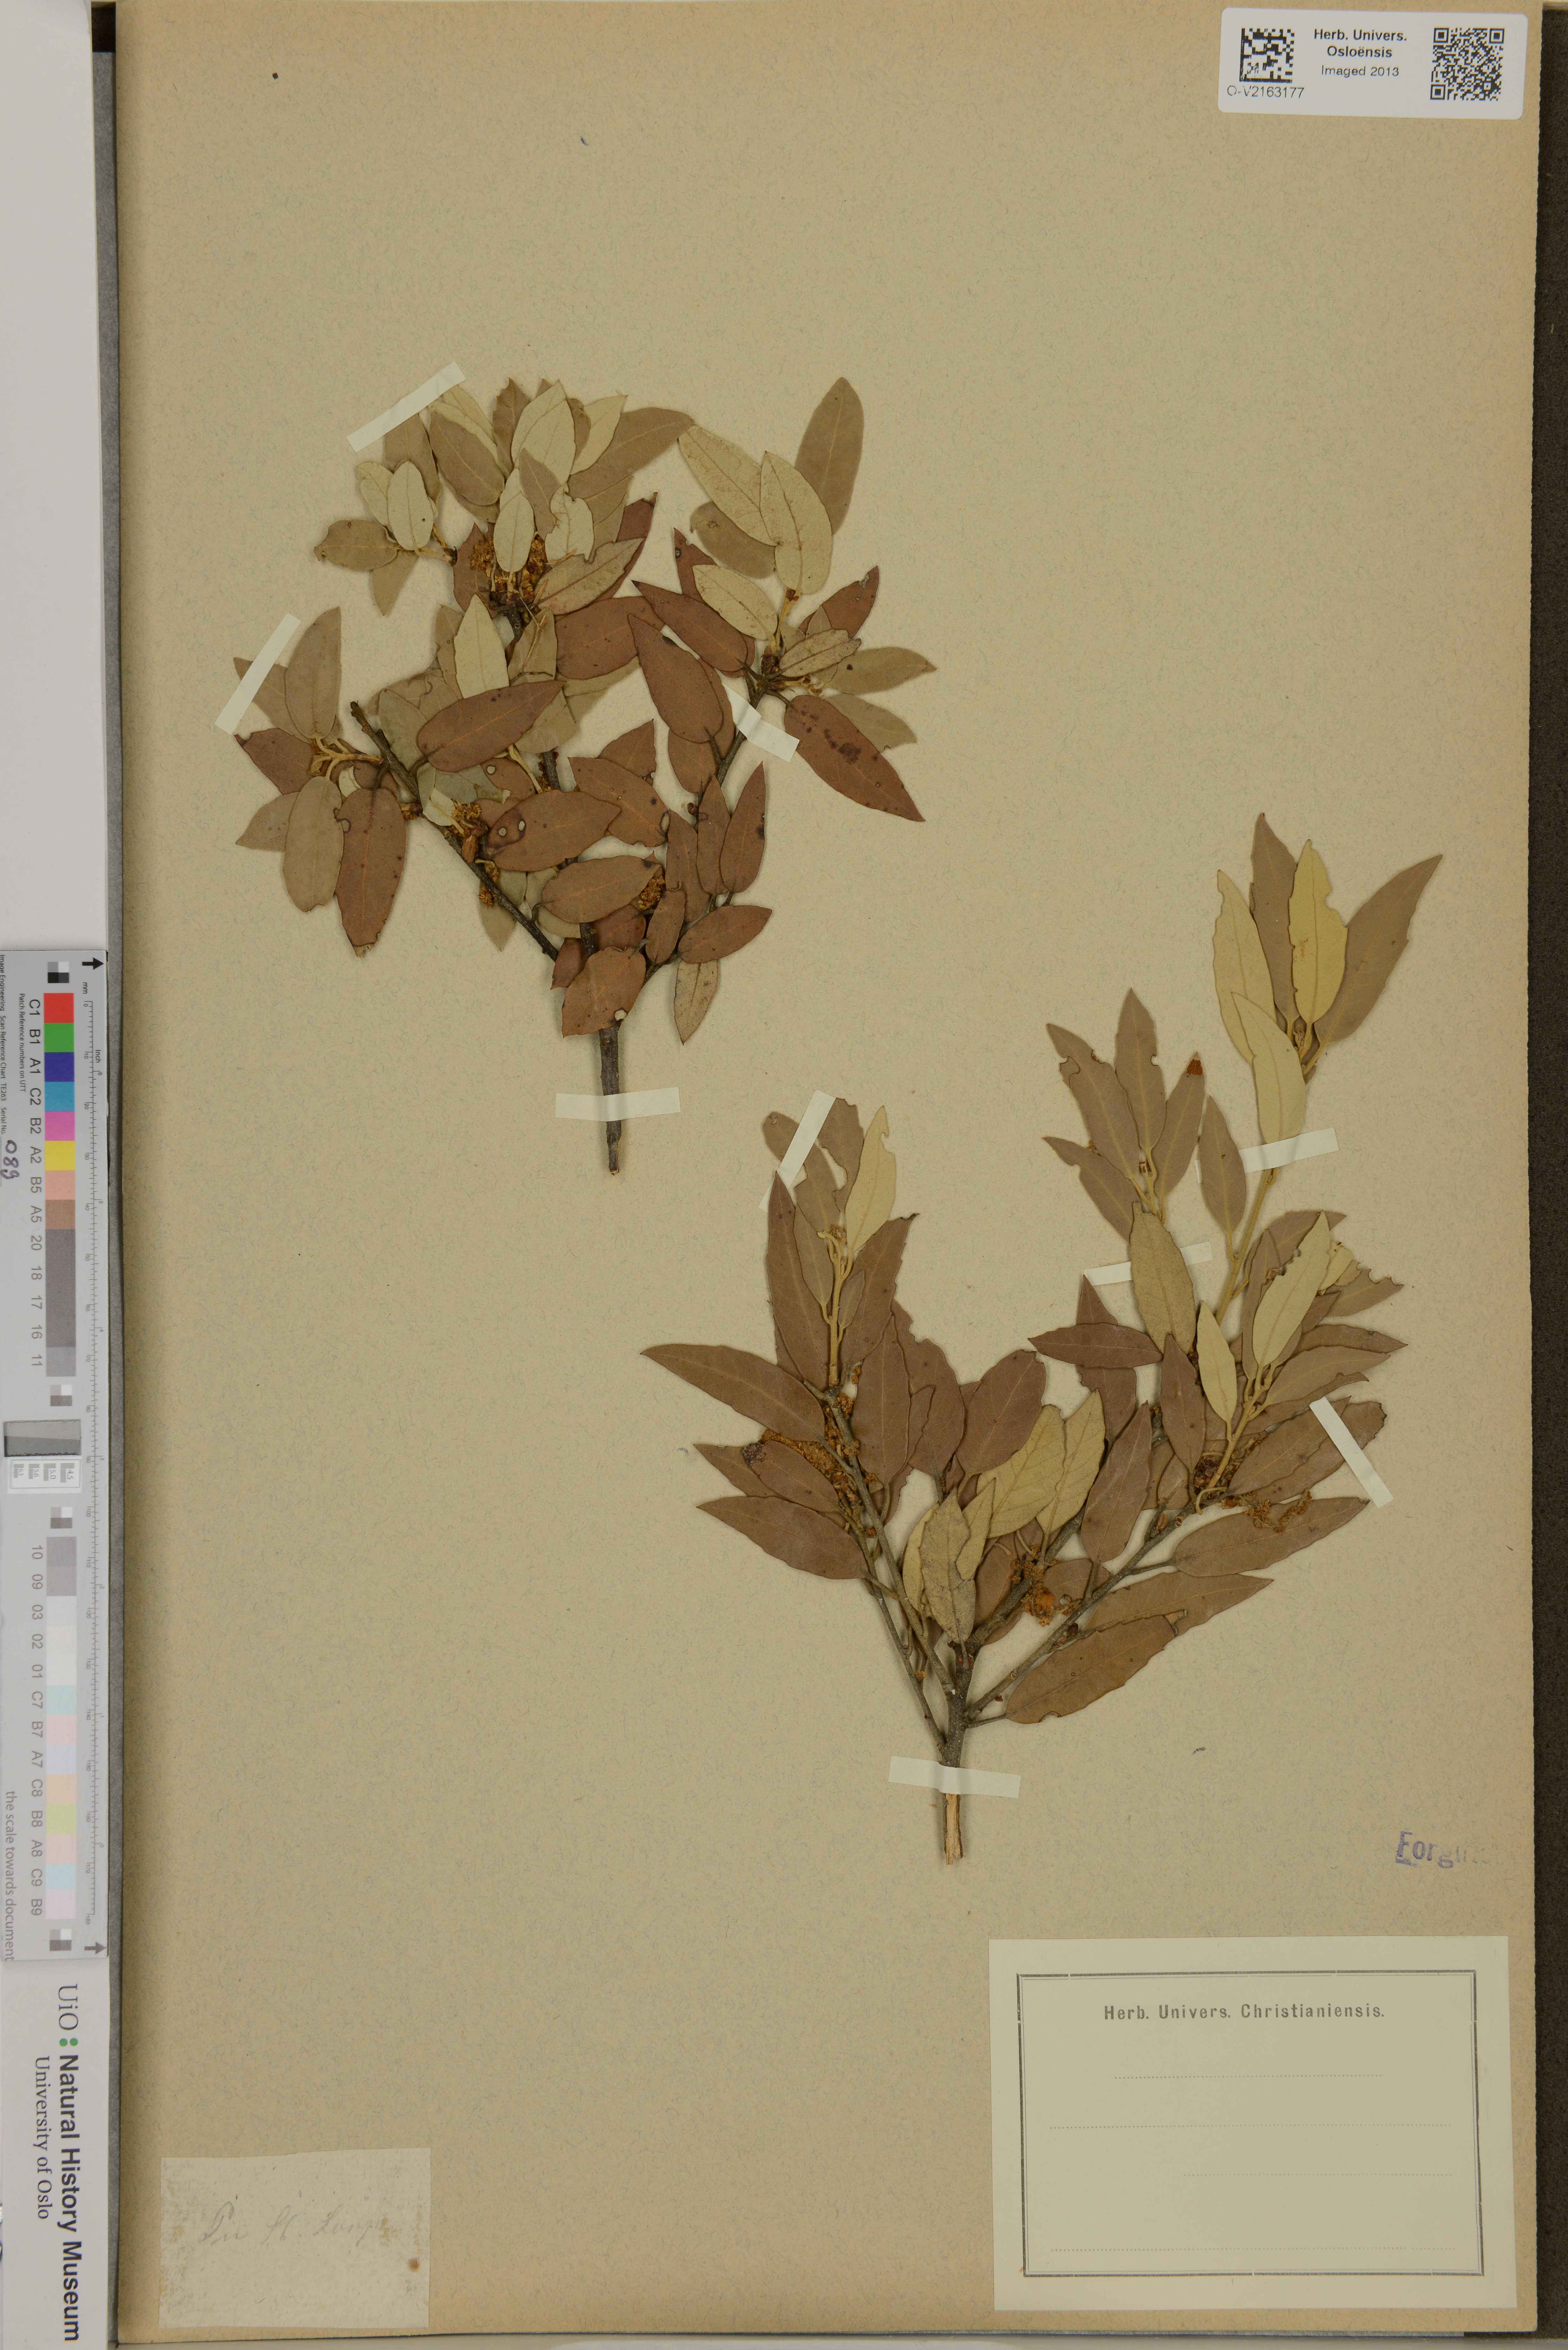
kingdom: Plantae
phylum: Tracheophyta
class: Magnoliopsida
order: Fagales
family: Fagaceae
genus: Quercus
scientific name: Quercus
